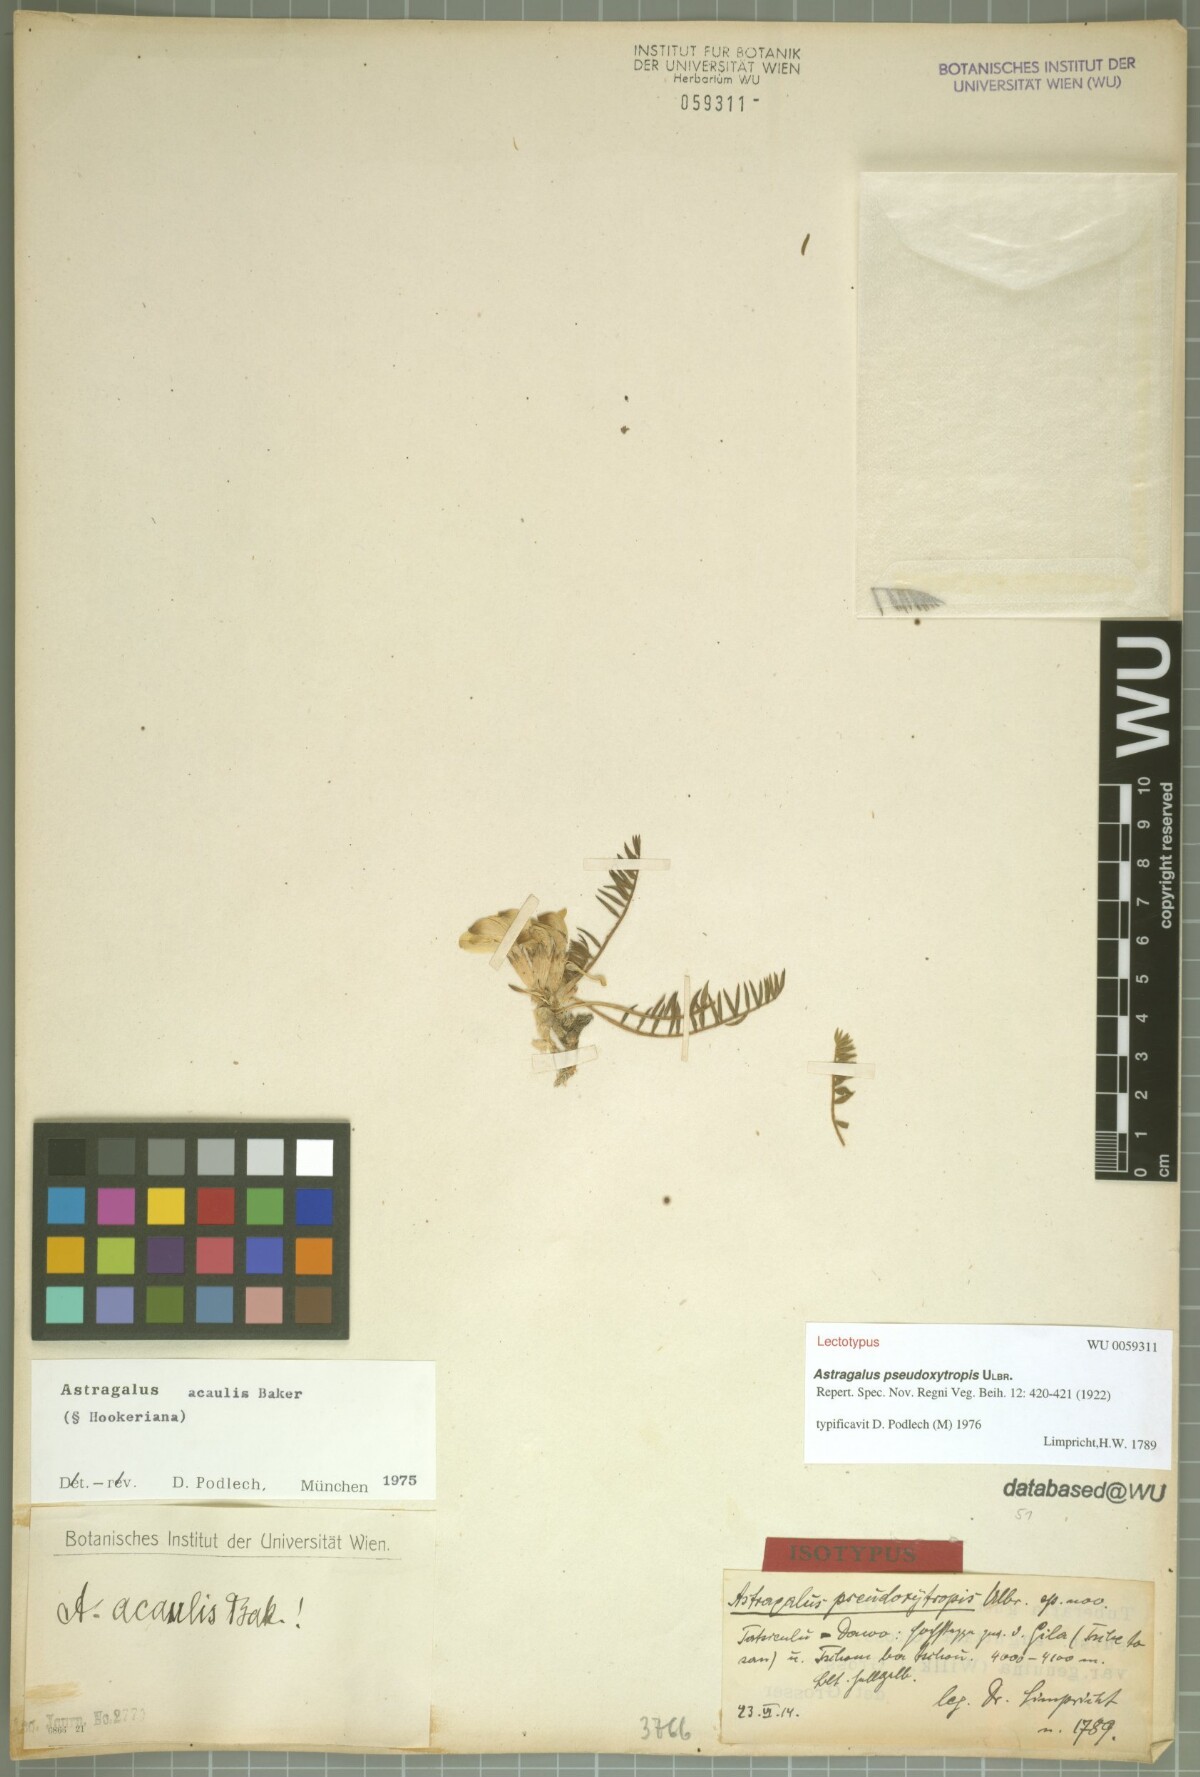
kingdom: Plantae
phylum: Tracheophyta
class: Magnoliopsida
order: Fabales
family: Fabaceae
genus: Astragalus
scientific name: Astragalus acaulis
